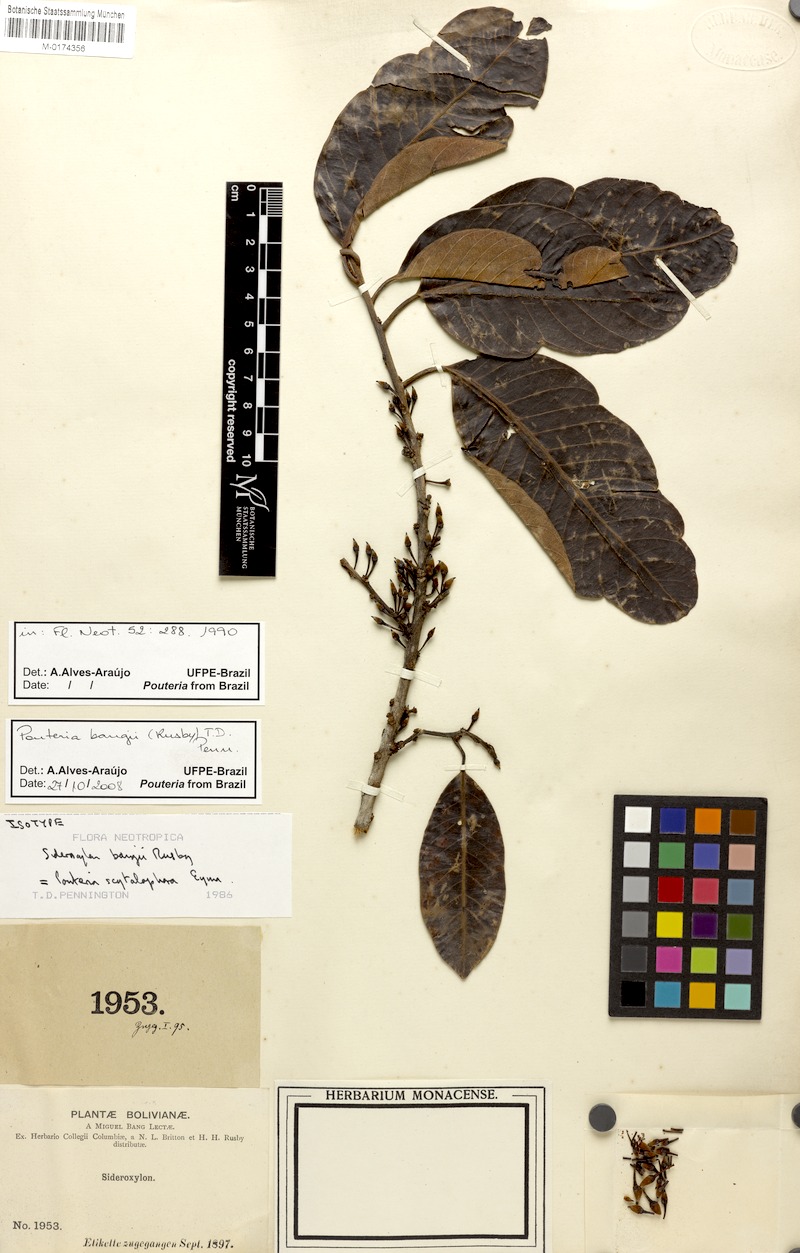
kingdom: Plantae
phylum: Tracheophyta
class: Magnoliopsida
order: Ericales
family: Sapotaceae
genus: Pouteria
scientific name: Pouteria bangii
